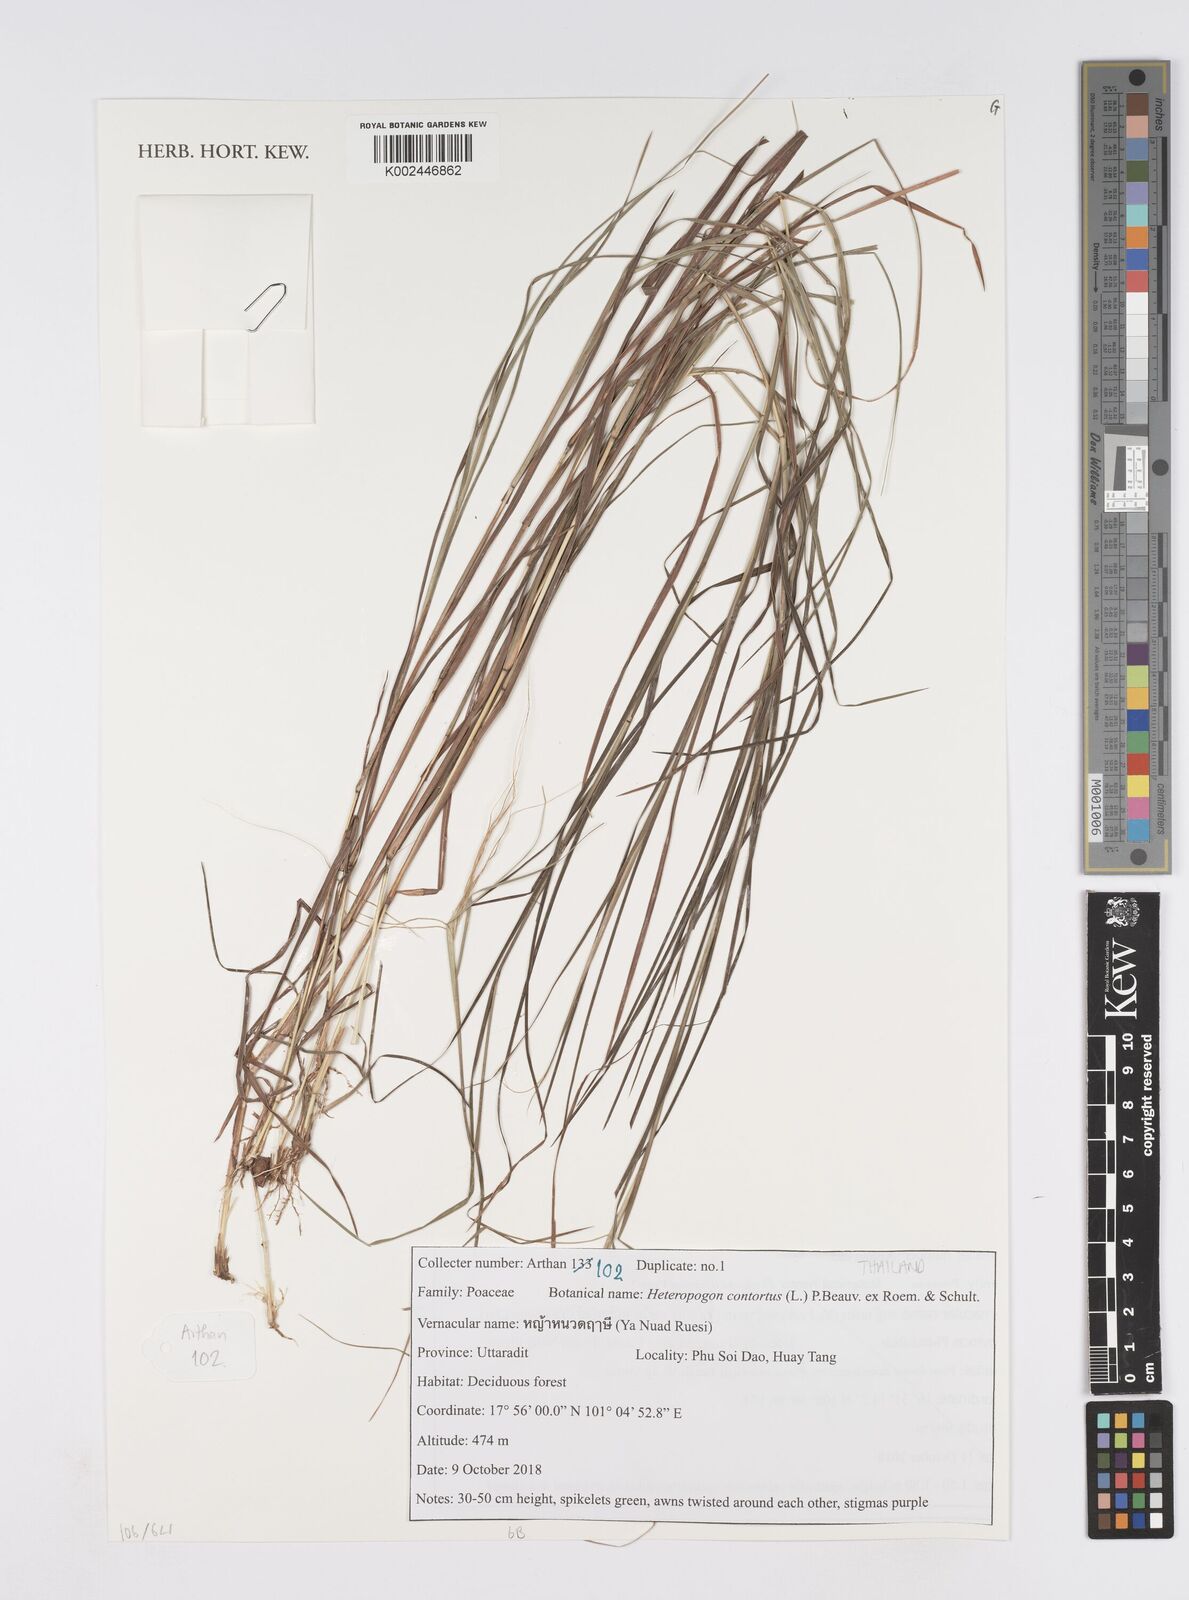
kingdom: Plantae
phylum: Tracheophyta
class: Liliopsida
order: Poales
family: Poaceae
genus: Heteropogon
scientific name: Heteropogon contortus
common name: Tanglehead
